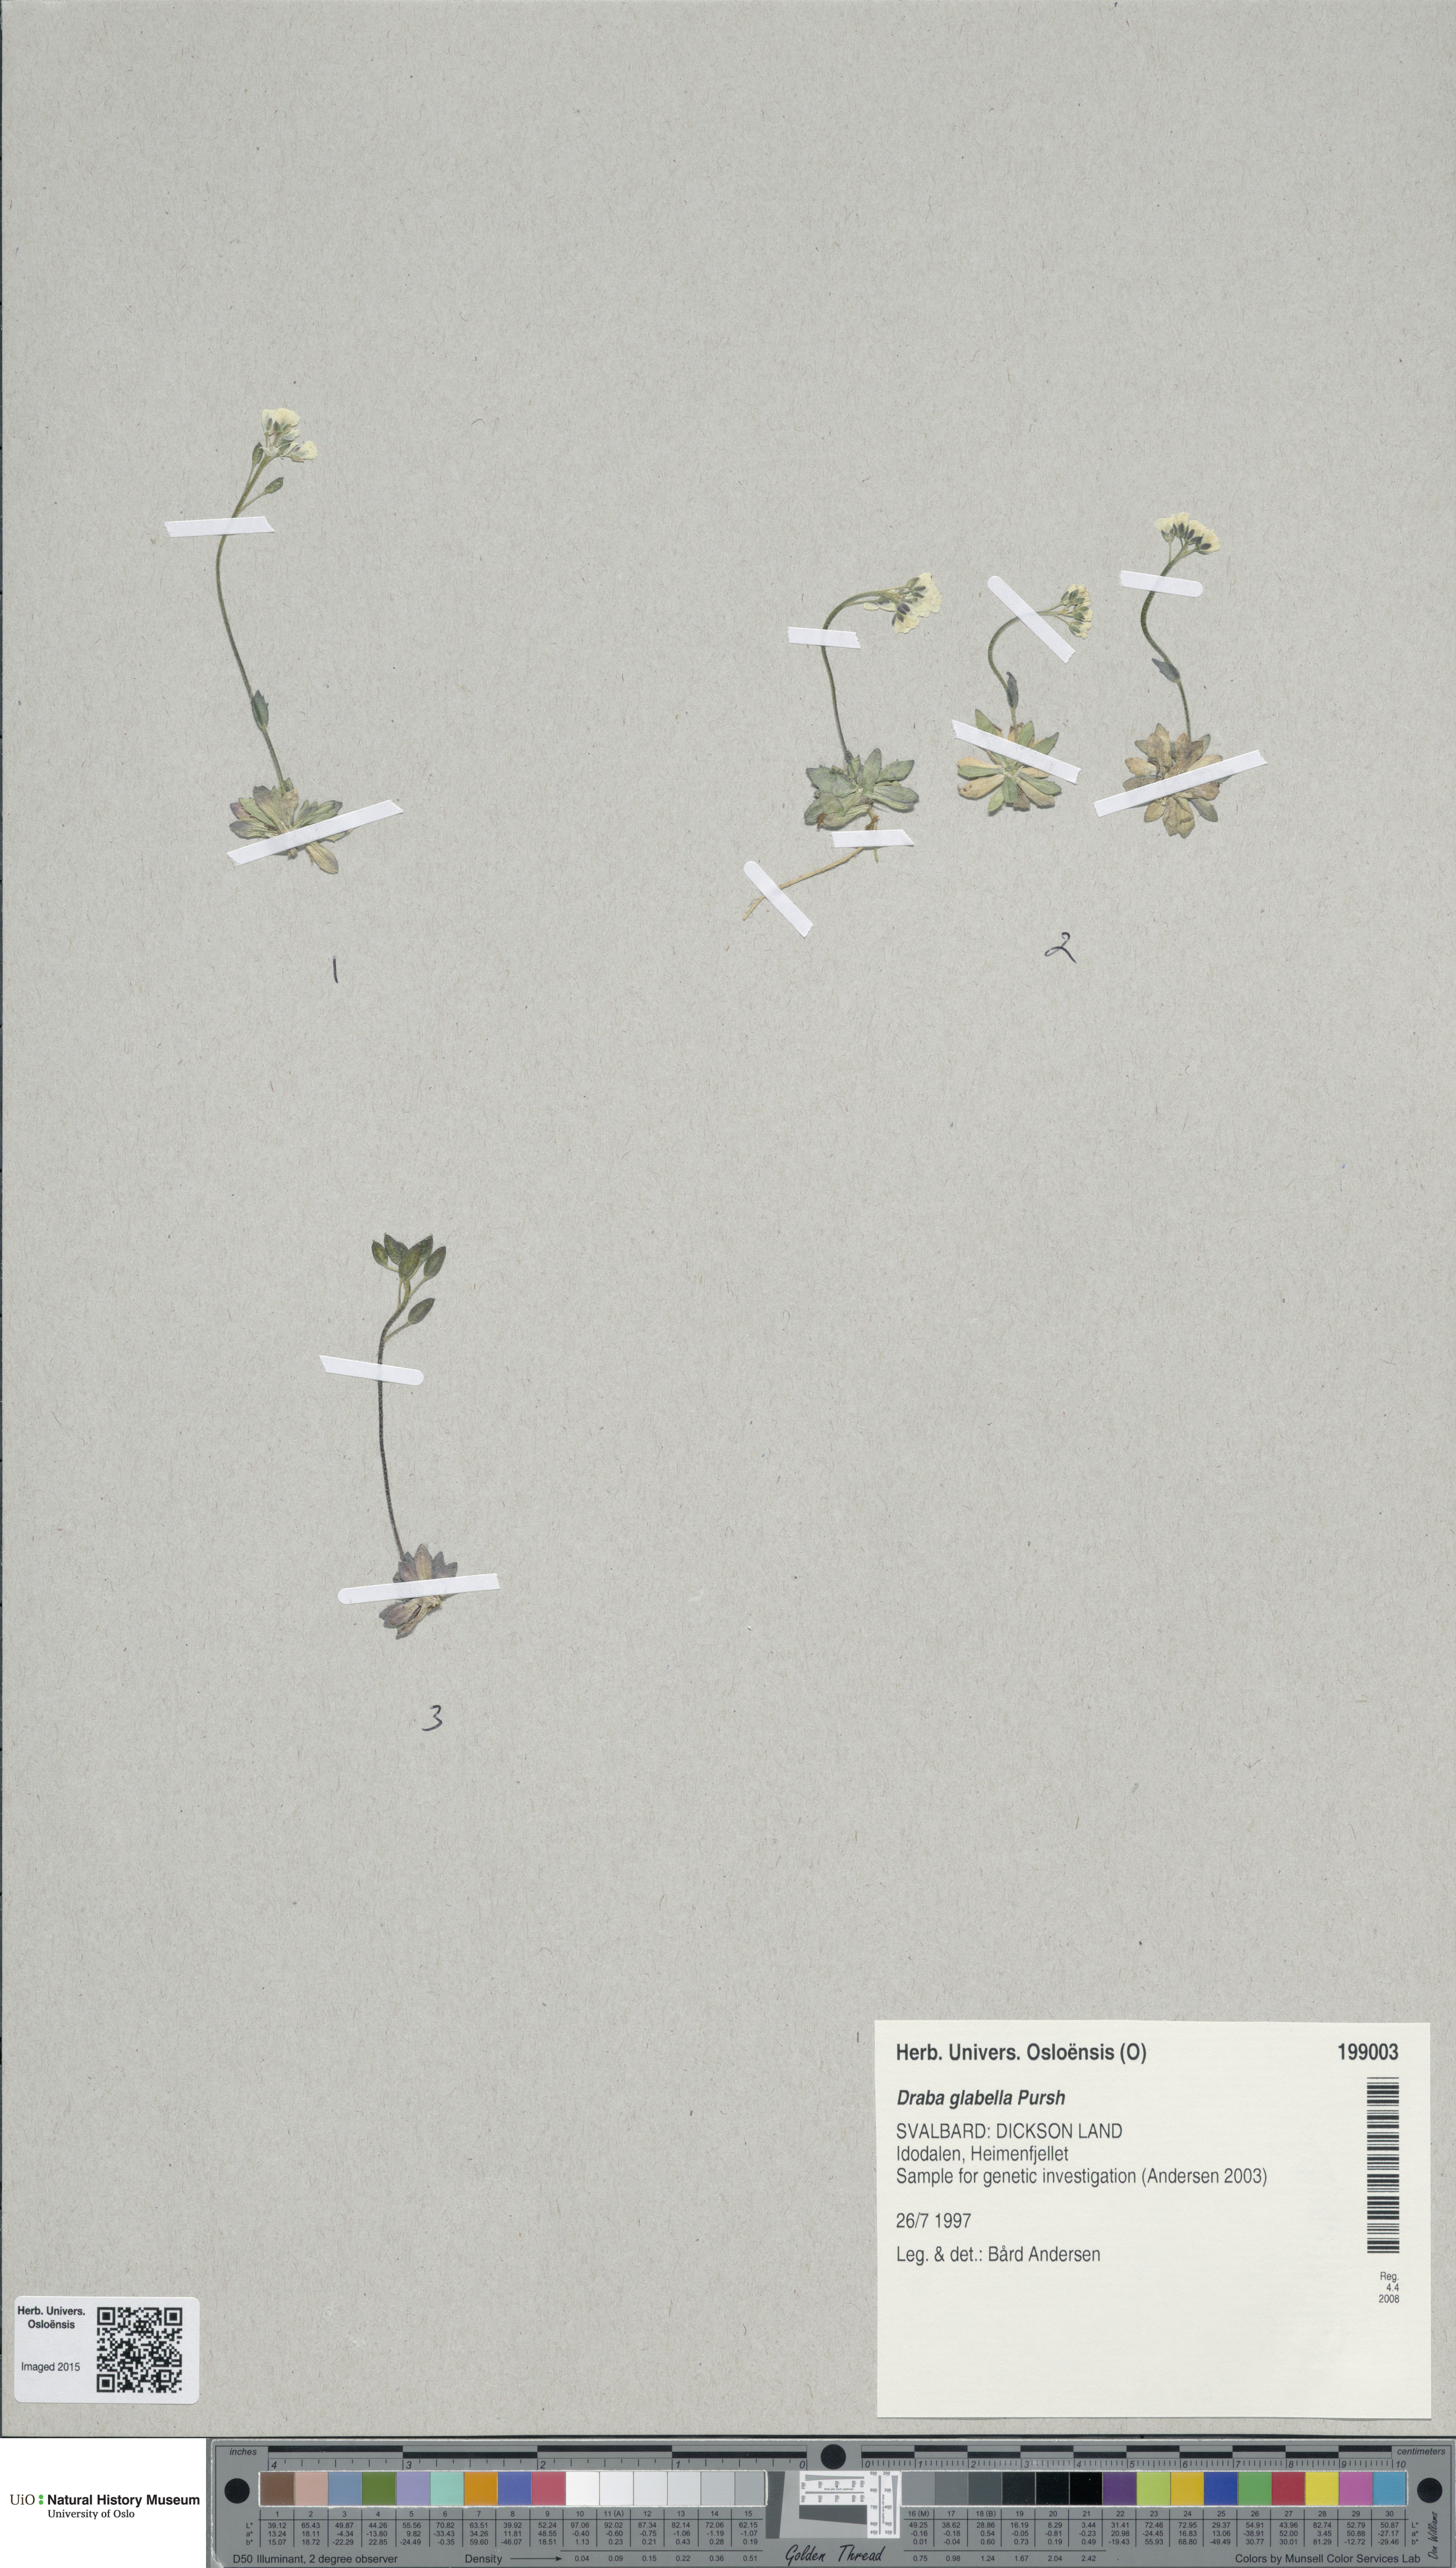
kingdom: Plantae
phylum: Tracheophyta
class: Magnoliopsida
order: Brassicales
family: Brassicaceae
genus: Draba
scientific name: Draba glabella
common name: Glaucous draba
